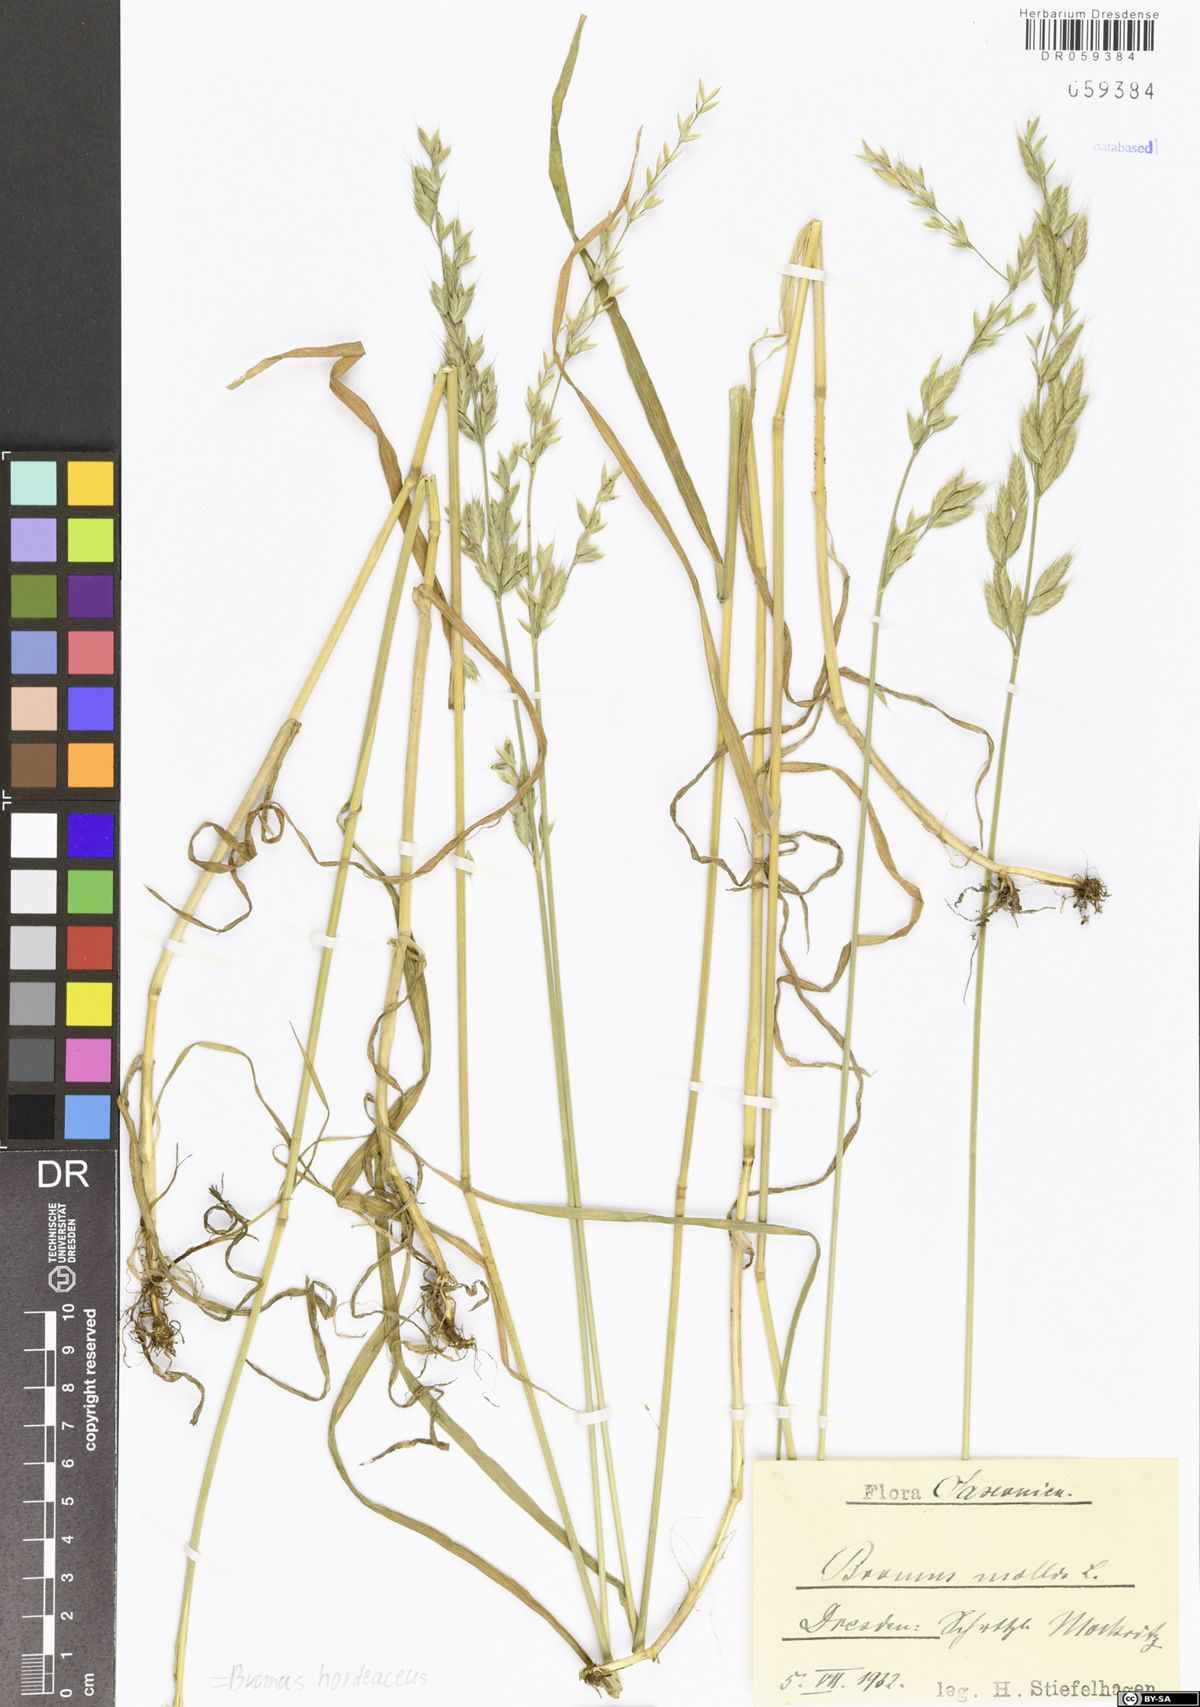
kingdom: Plantae
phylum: Tracheophyta
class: Liliopsida
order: Poales
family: Poaceae
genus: Bromus
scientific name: Bromus hordeaceus
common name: Soft brome
